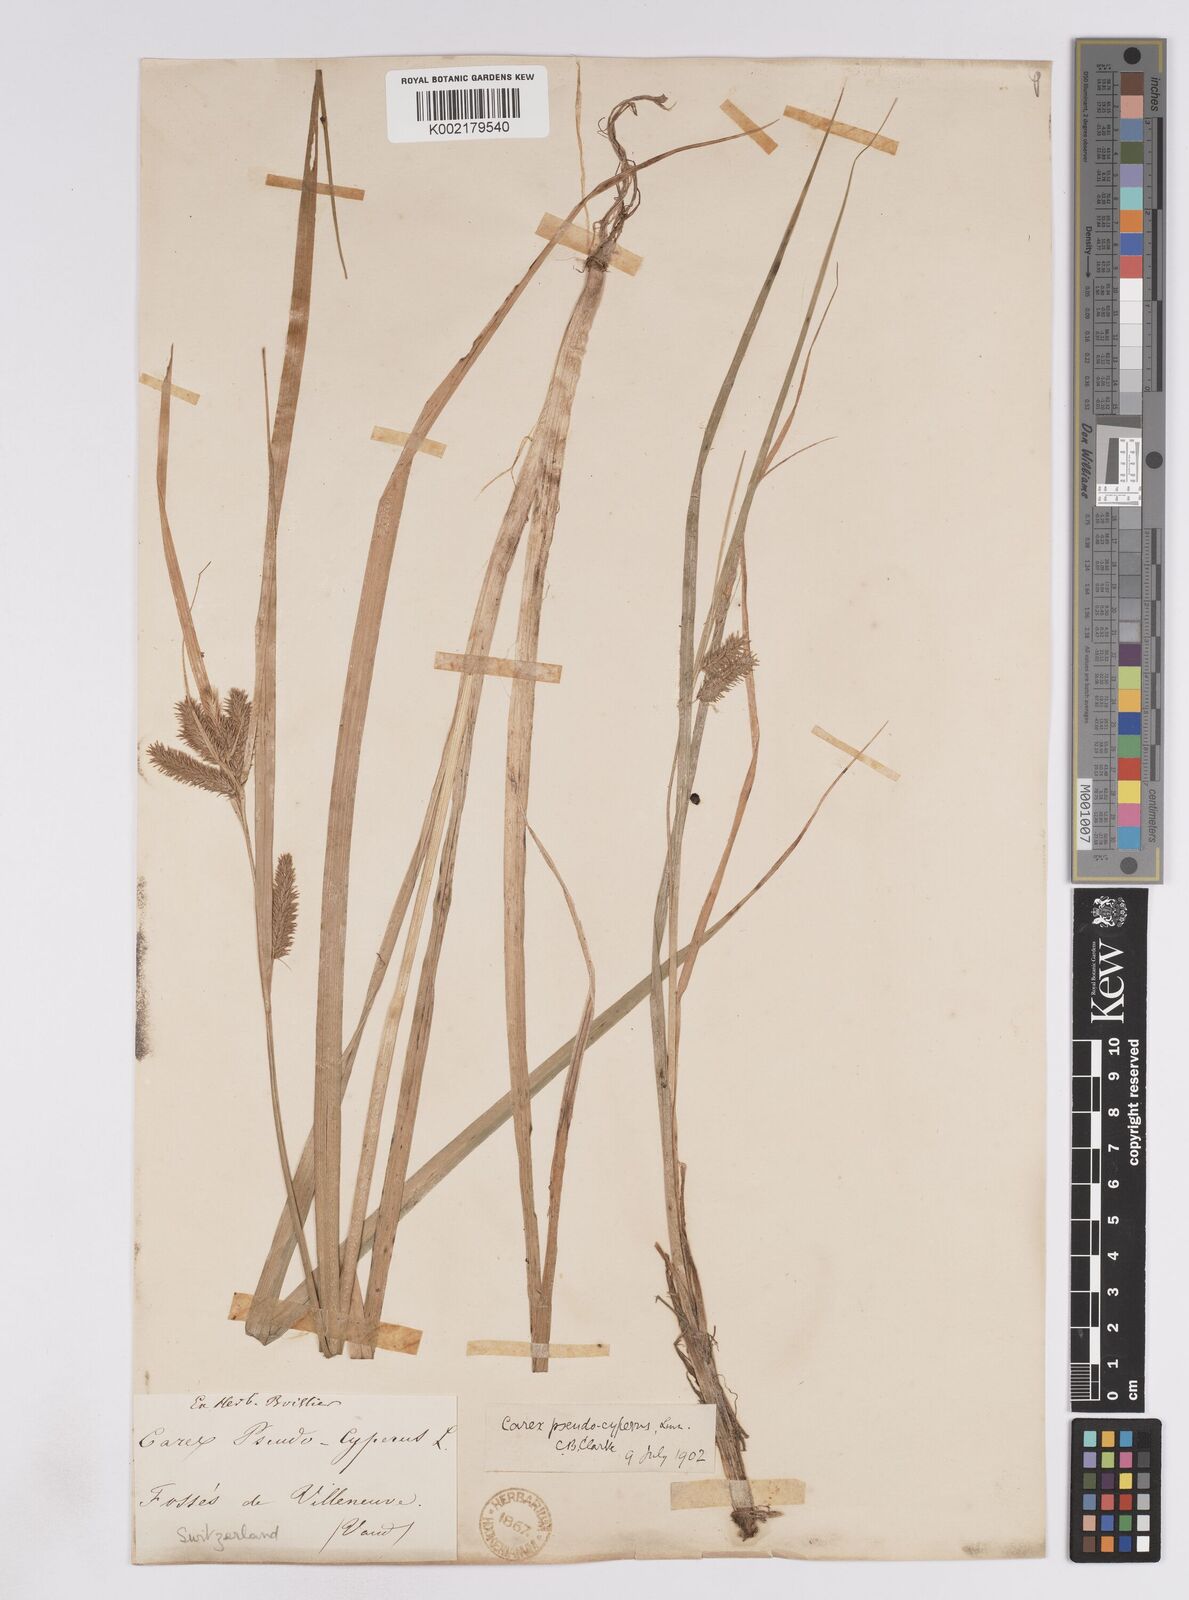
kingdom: Plantae
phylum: Tracheophyta
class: Liliopsida
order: Poales
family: Cyperaceae
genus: Carex
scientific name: Carex pseudocyperus
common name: Cyperus sedge
